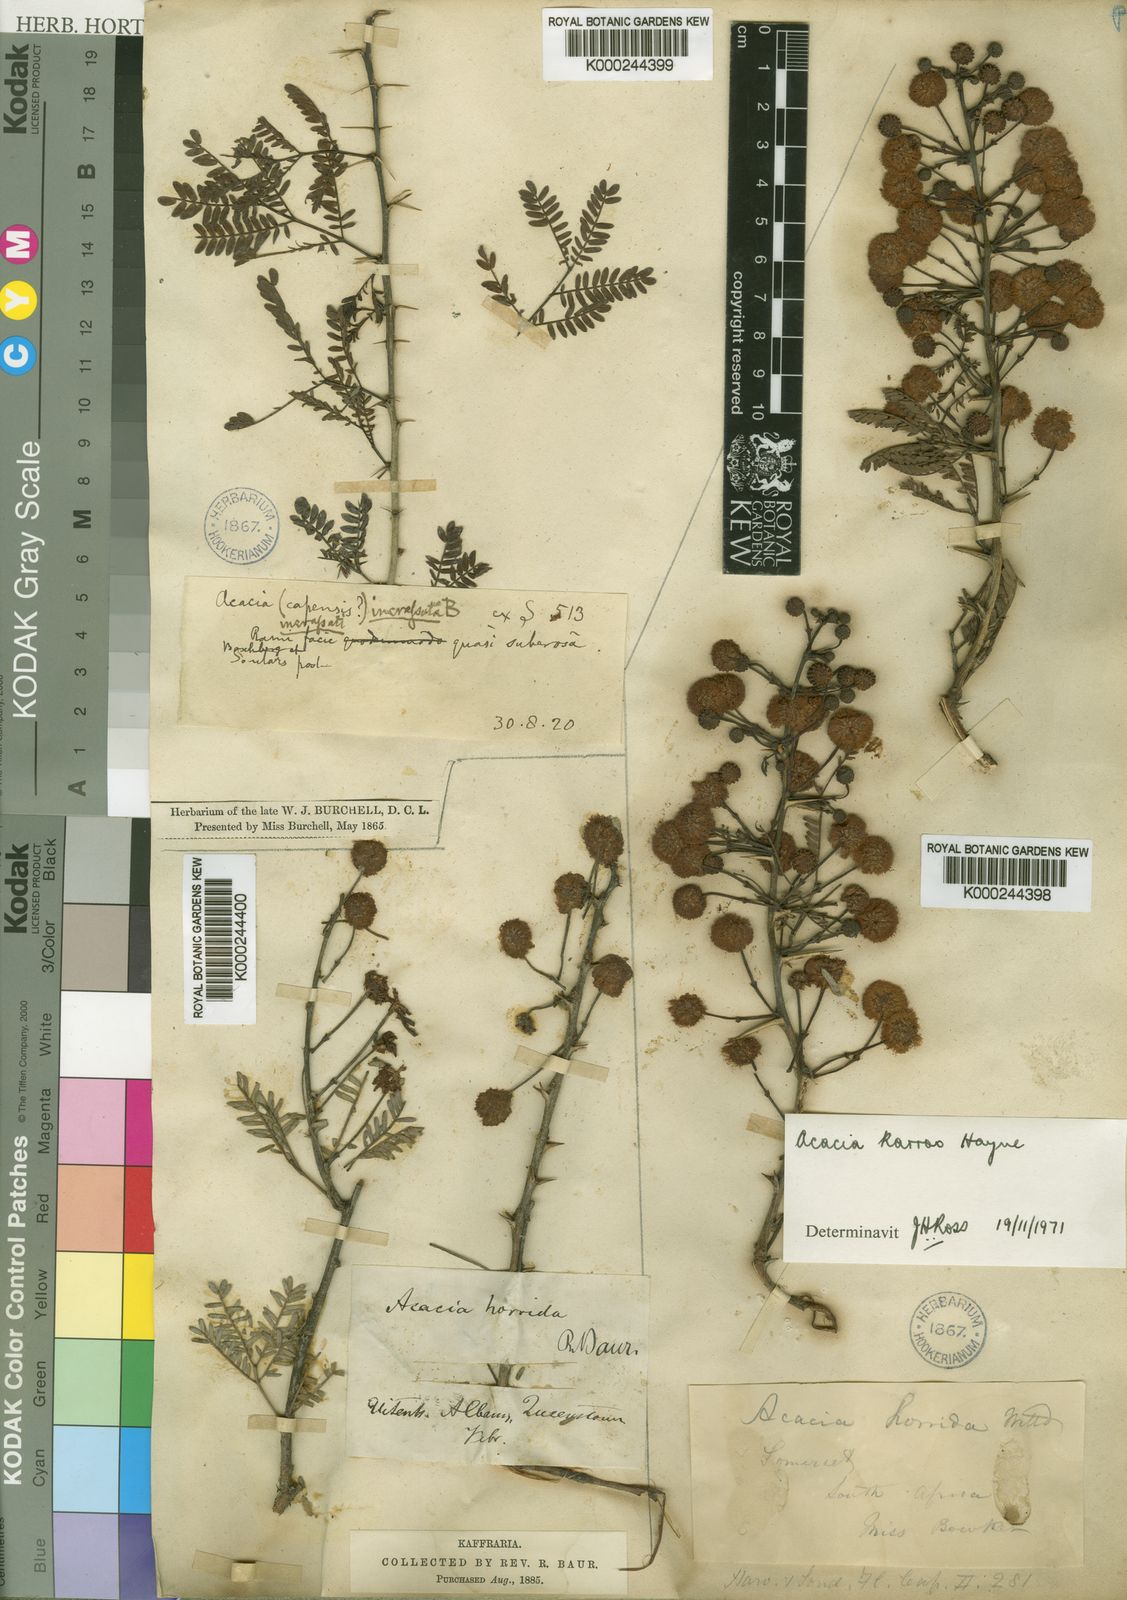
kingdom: Plantae
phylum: Tracheophyta
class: Magnoliopsida
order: Fabales
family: Fabaceae
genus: Vachellia
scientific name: Vachellia karroo
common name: Sweet thorn
